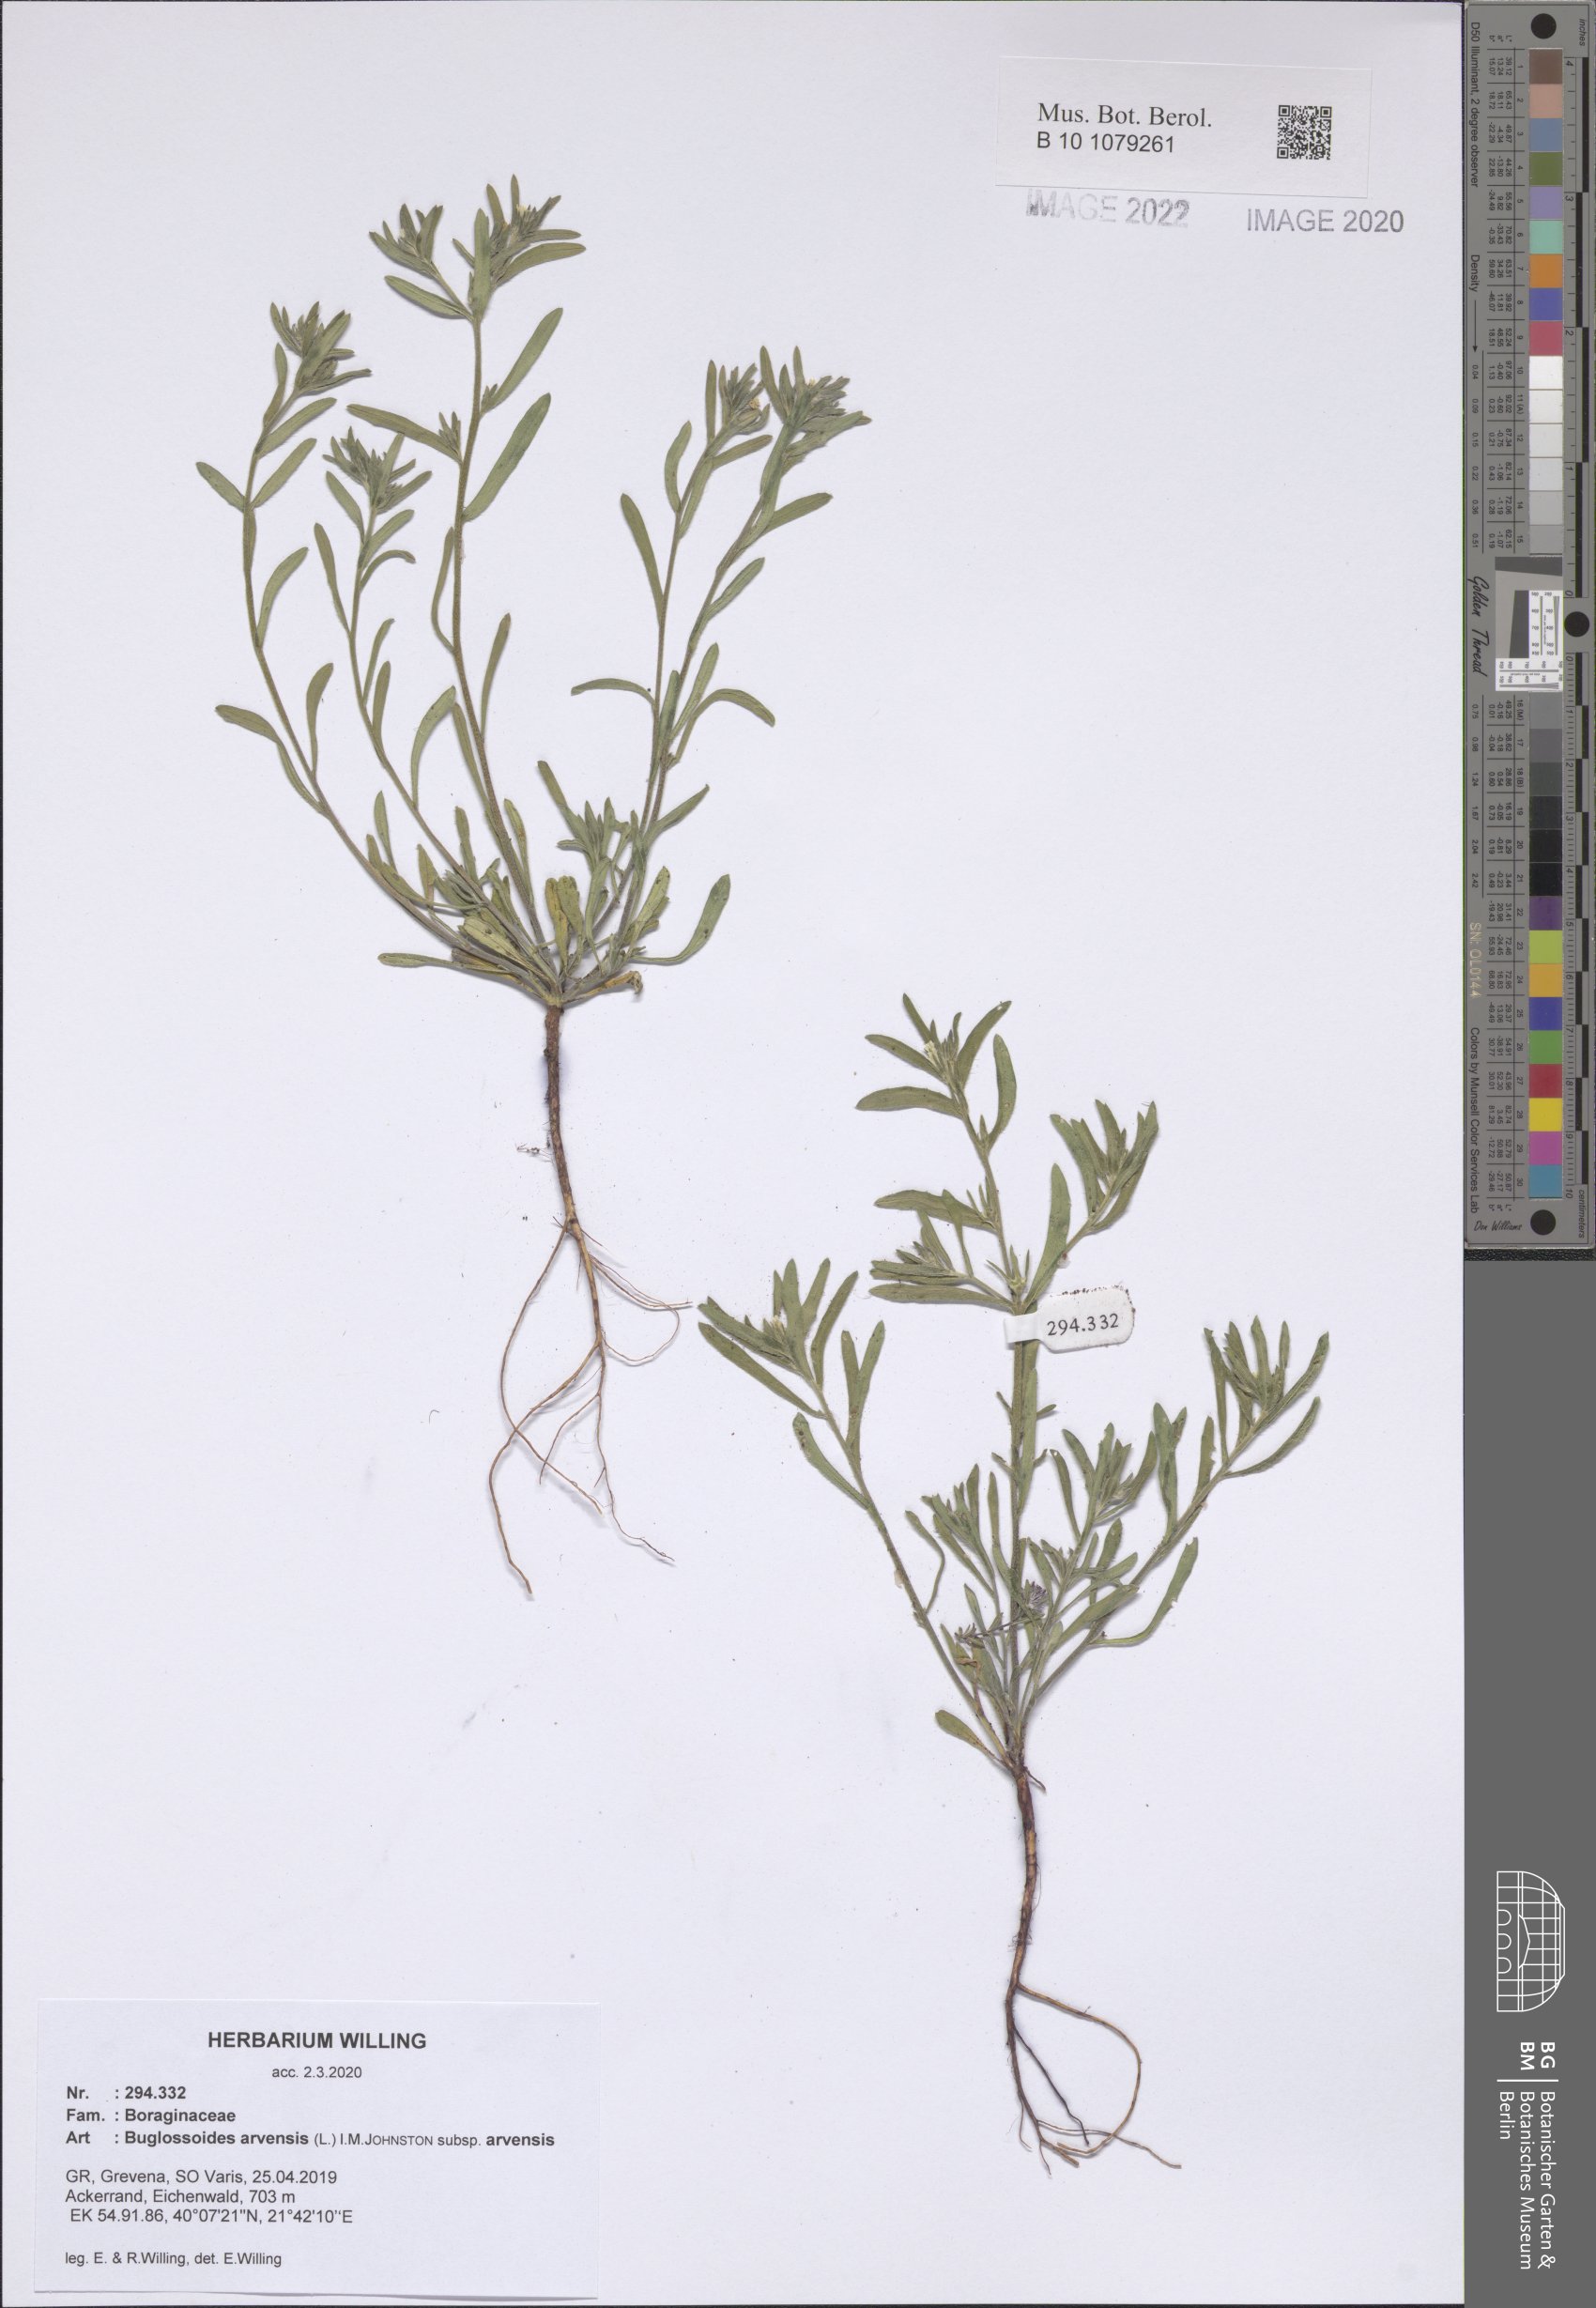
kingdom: Plantae
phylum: Tracheophyta
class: Magnoliopsida
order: Boraginales
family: Boraginaceae
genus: Buglossoides
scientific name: Buglossoides arvensis
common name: Corn gromwell
